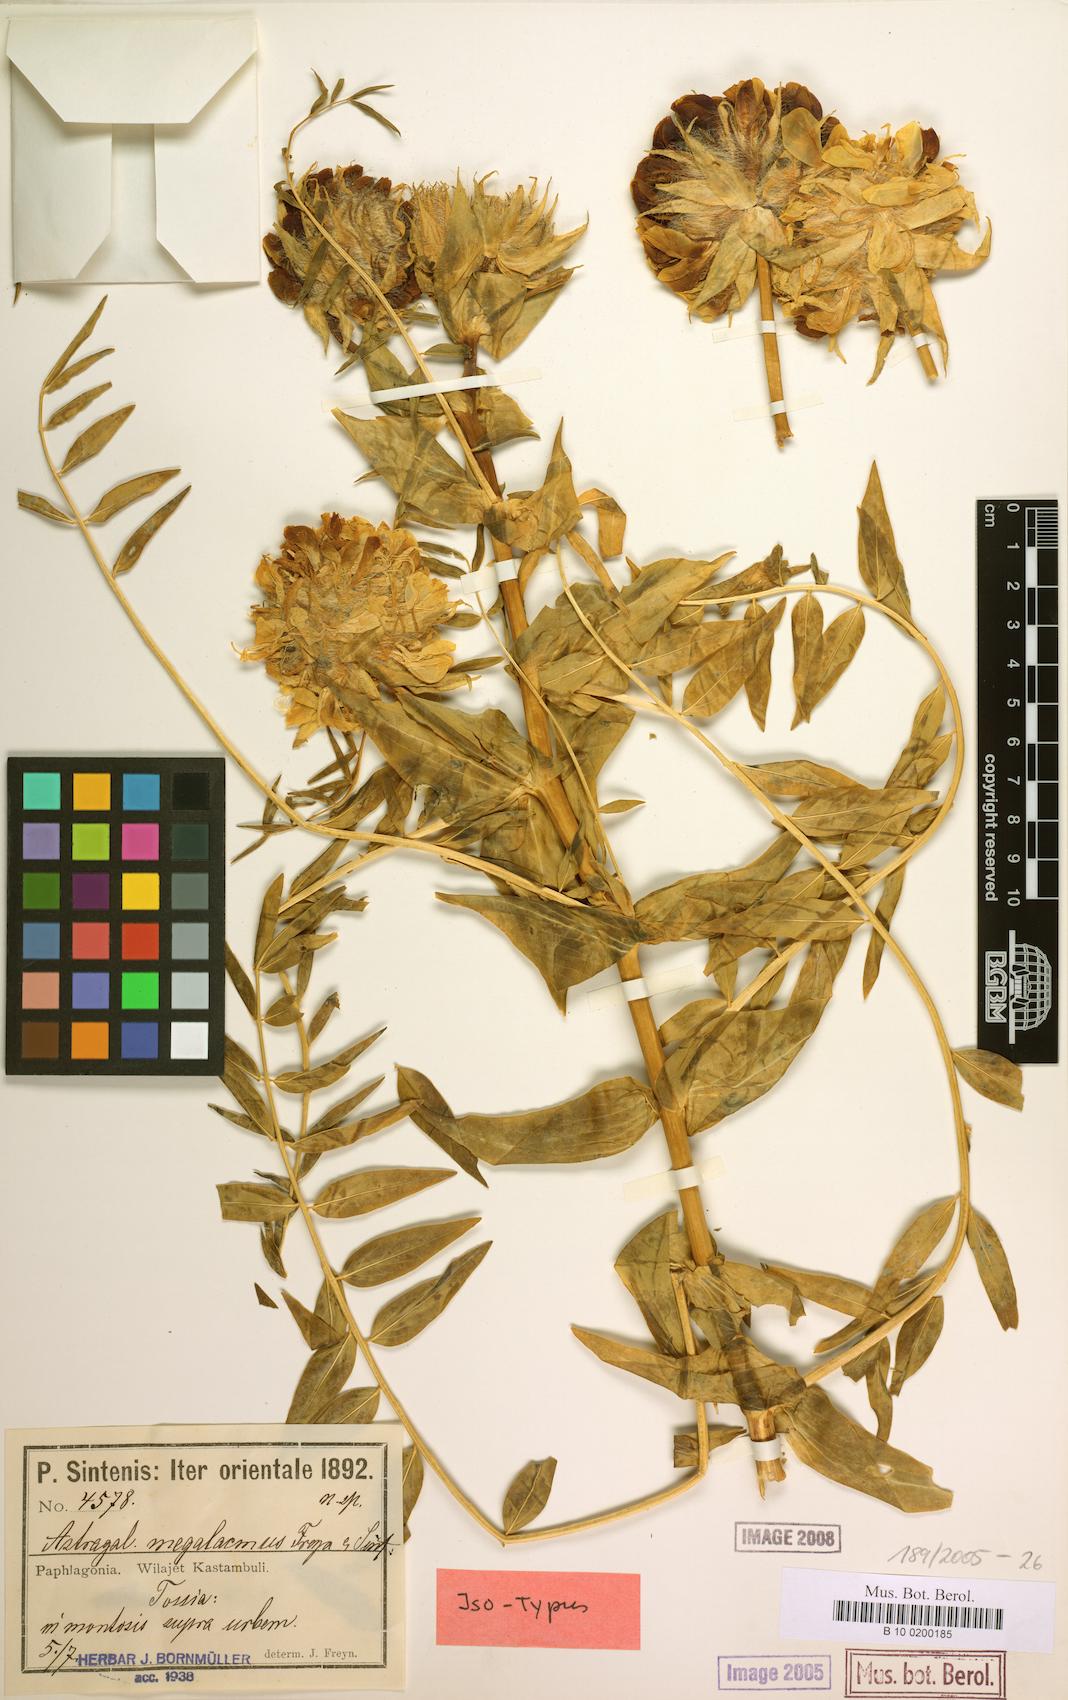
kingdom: Plantae
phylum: Tracheophyta
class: Magnoliopsida
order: Fabales
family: Fabaceae
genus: Astragalus
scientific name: Astragalus macrocephalus
